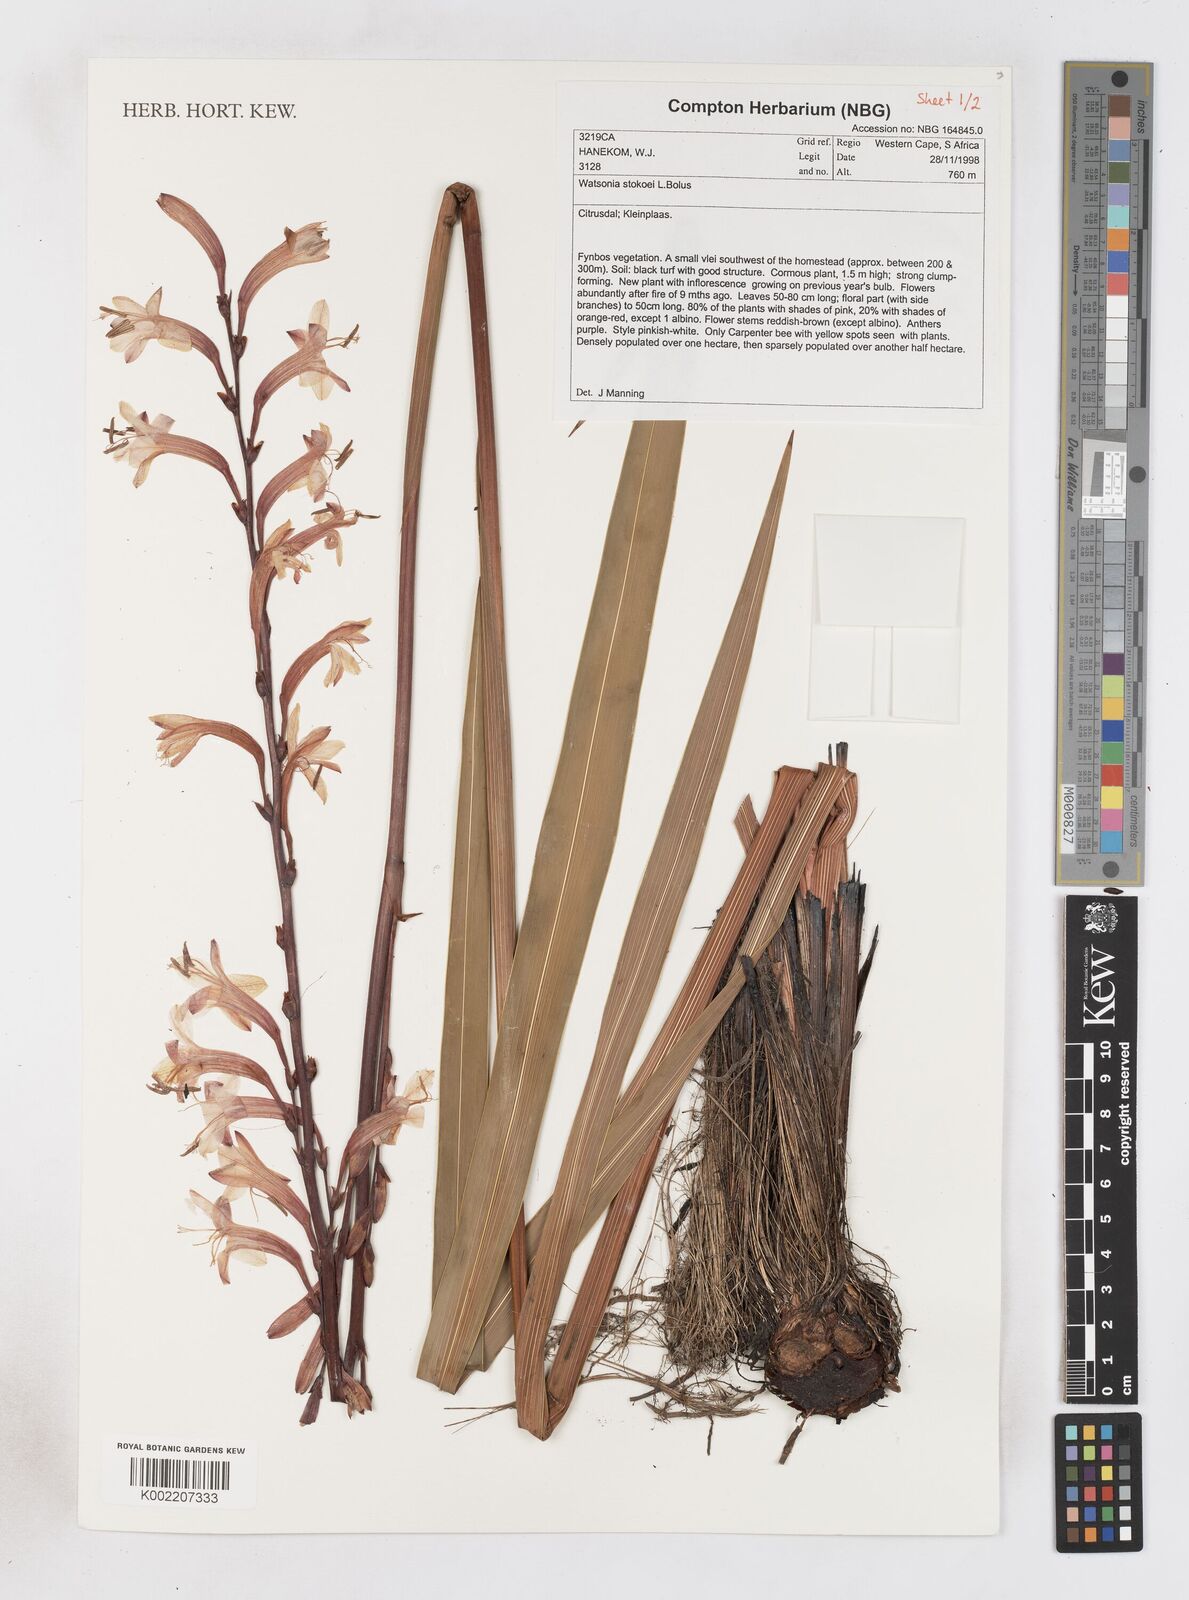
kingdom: Plantae
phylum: Tracheophyta
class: Liliopsida
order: Asparagales
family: Iridaceae
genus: Watsonia
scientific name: Watsonia stokoei
